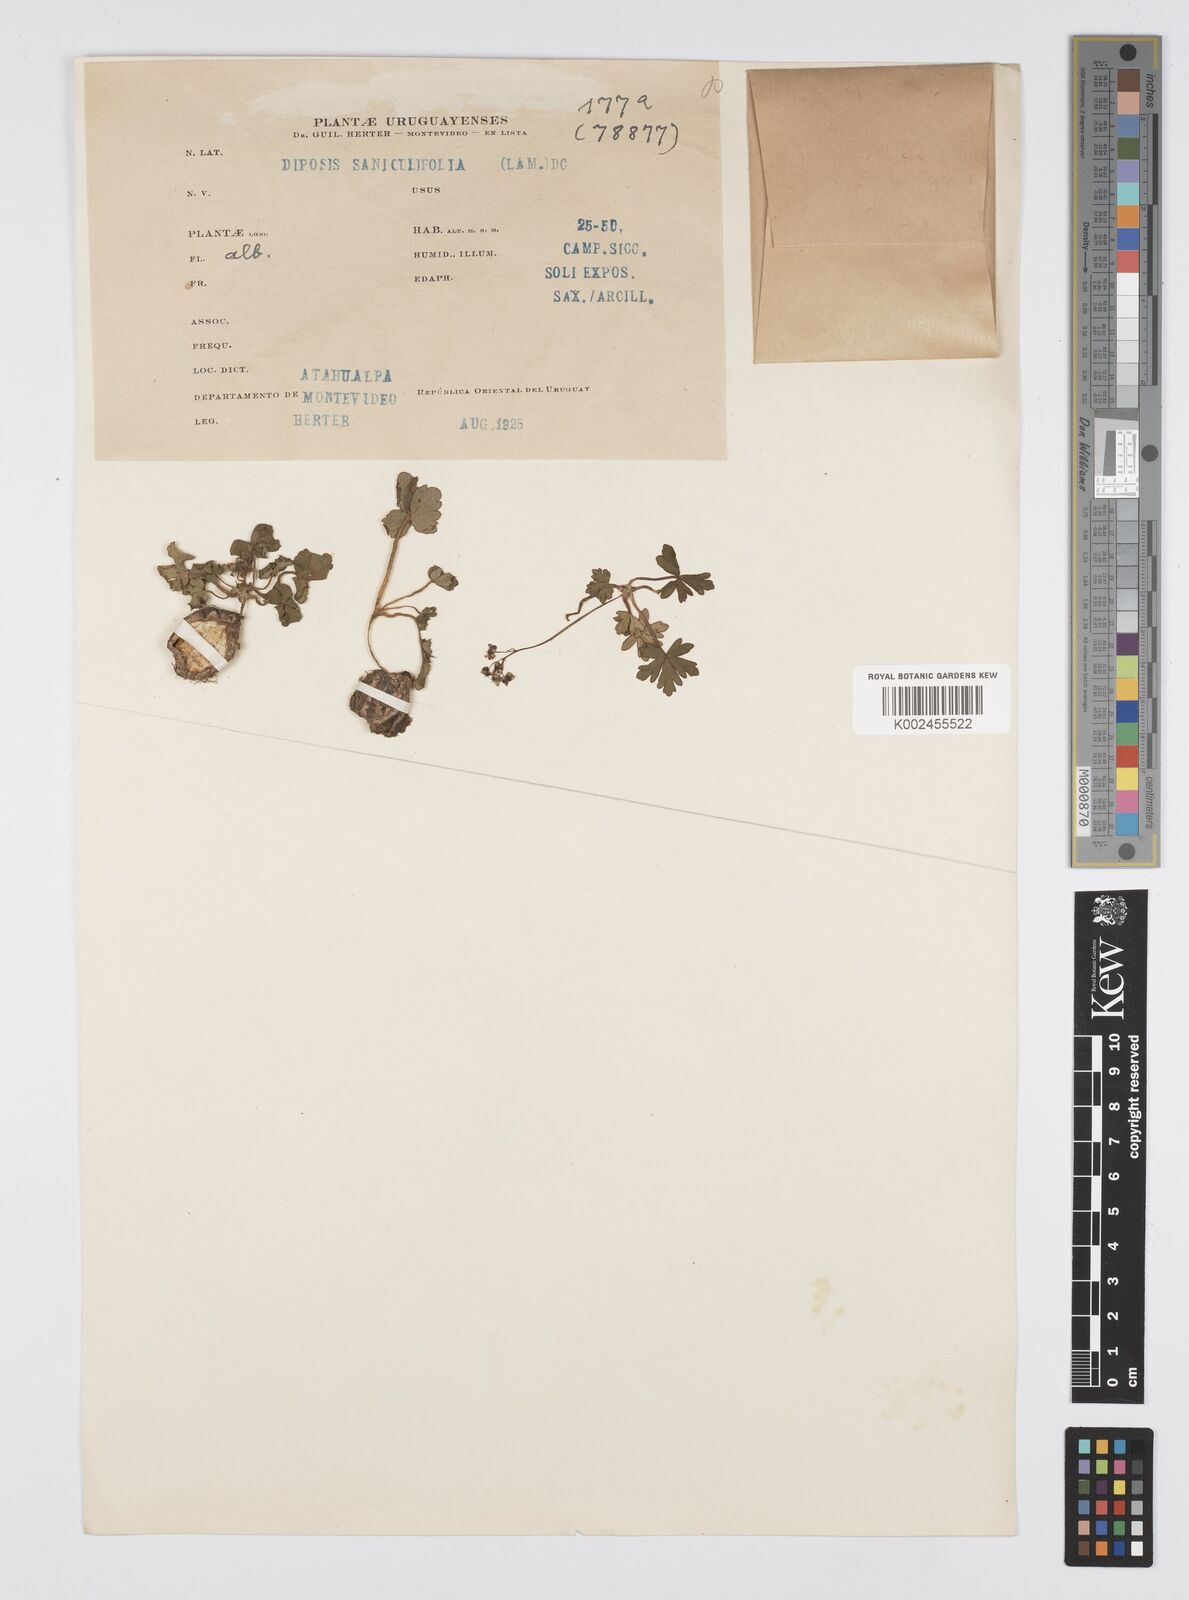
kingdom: Plantae
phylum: Tracheophyta
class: Magnoliopsida
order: Apiales
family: Apiaceae
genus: Diposis
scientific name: Diposis saniculifolia
